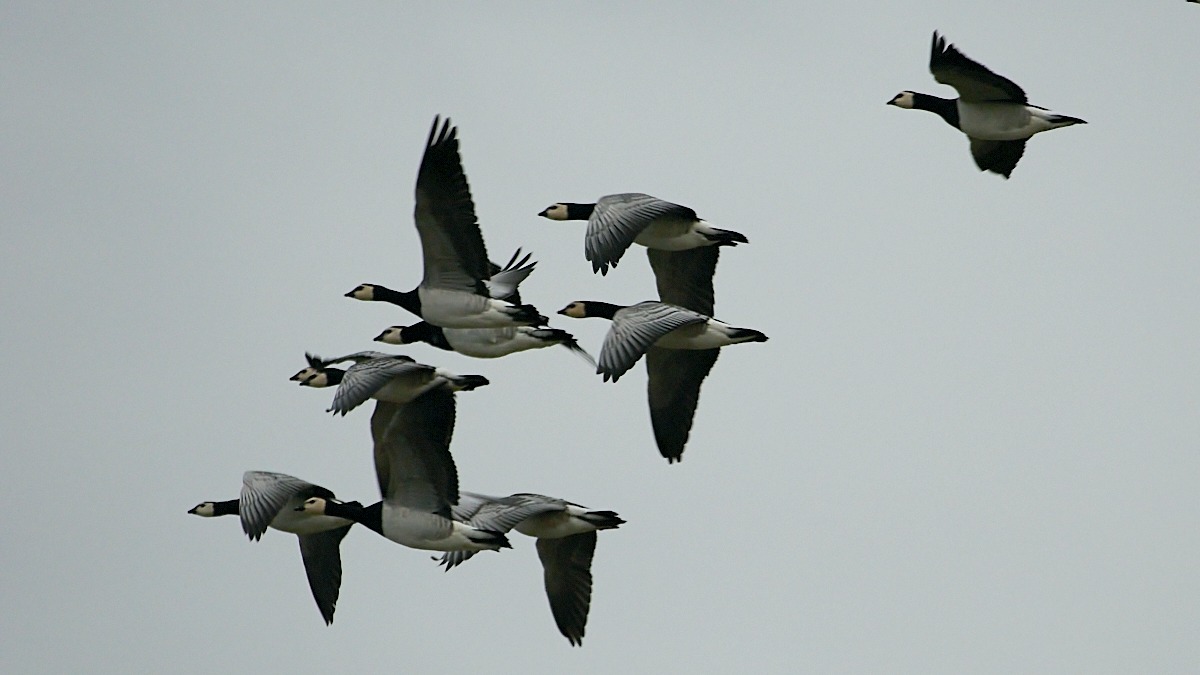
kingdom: Animalia
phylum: Chordata
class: Aves
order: Anseriformes
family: Anatidae
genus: Branta
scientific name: Branta leucopsis
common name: Bramgås
